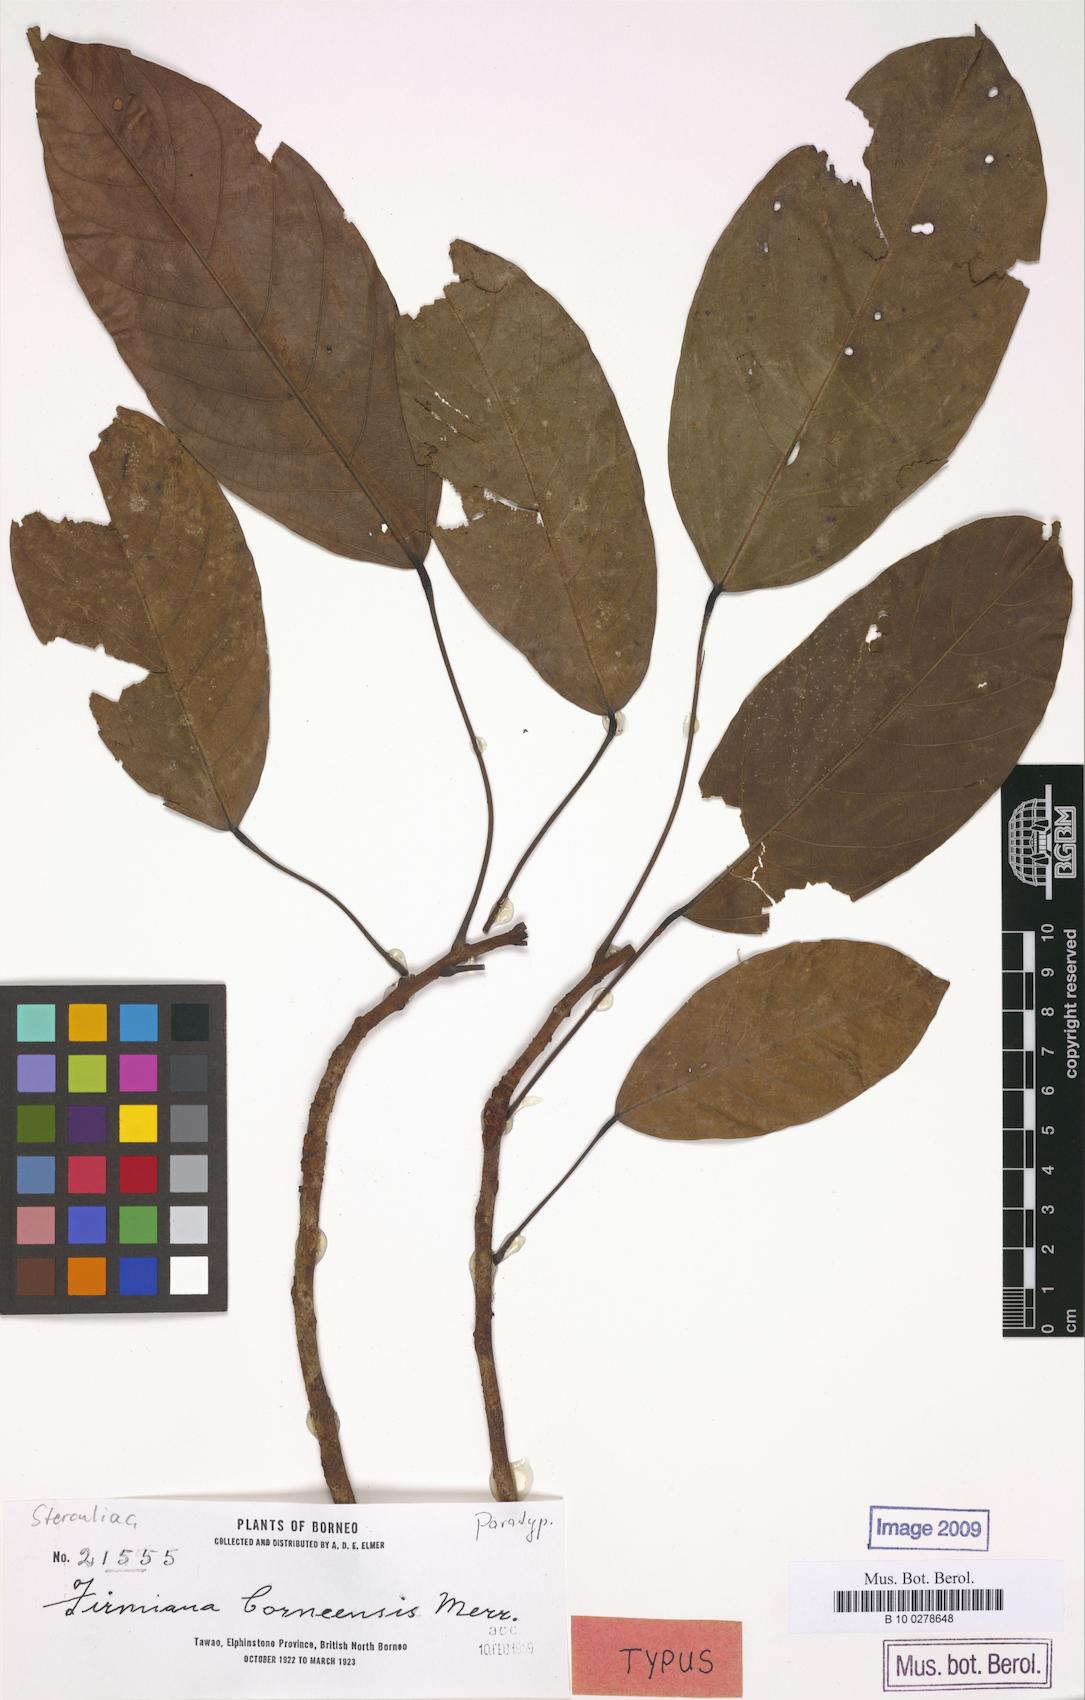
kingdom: Plantae
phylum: Tracheophyta
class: Magnoliopsida
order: Malvales
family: Malvaceae
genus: Scaphium
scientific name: Scaphium macropodum
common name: Malva nut
